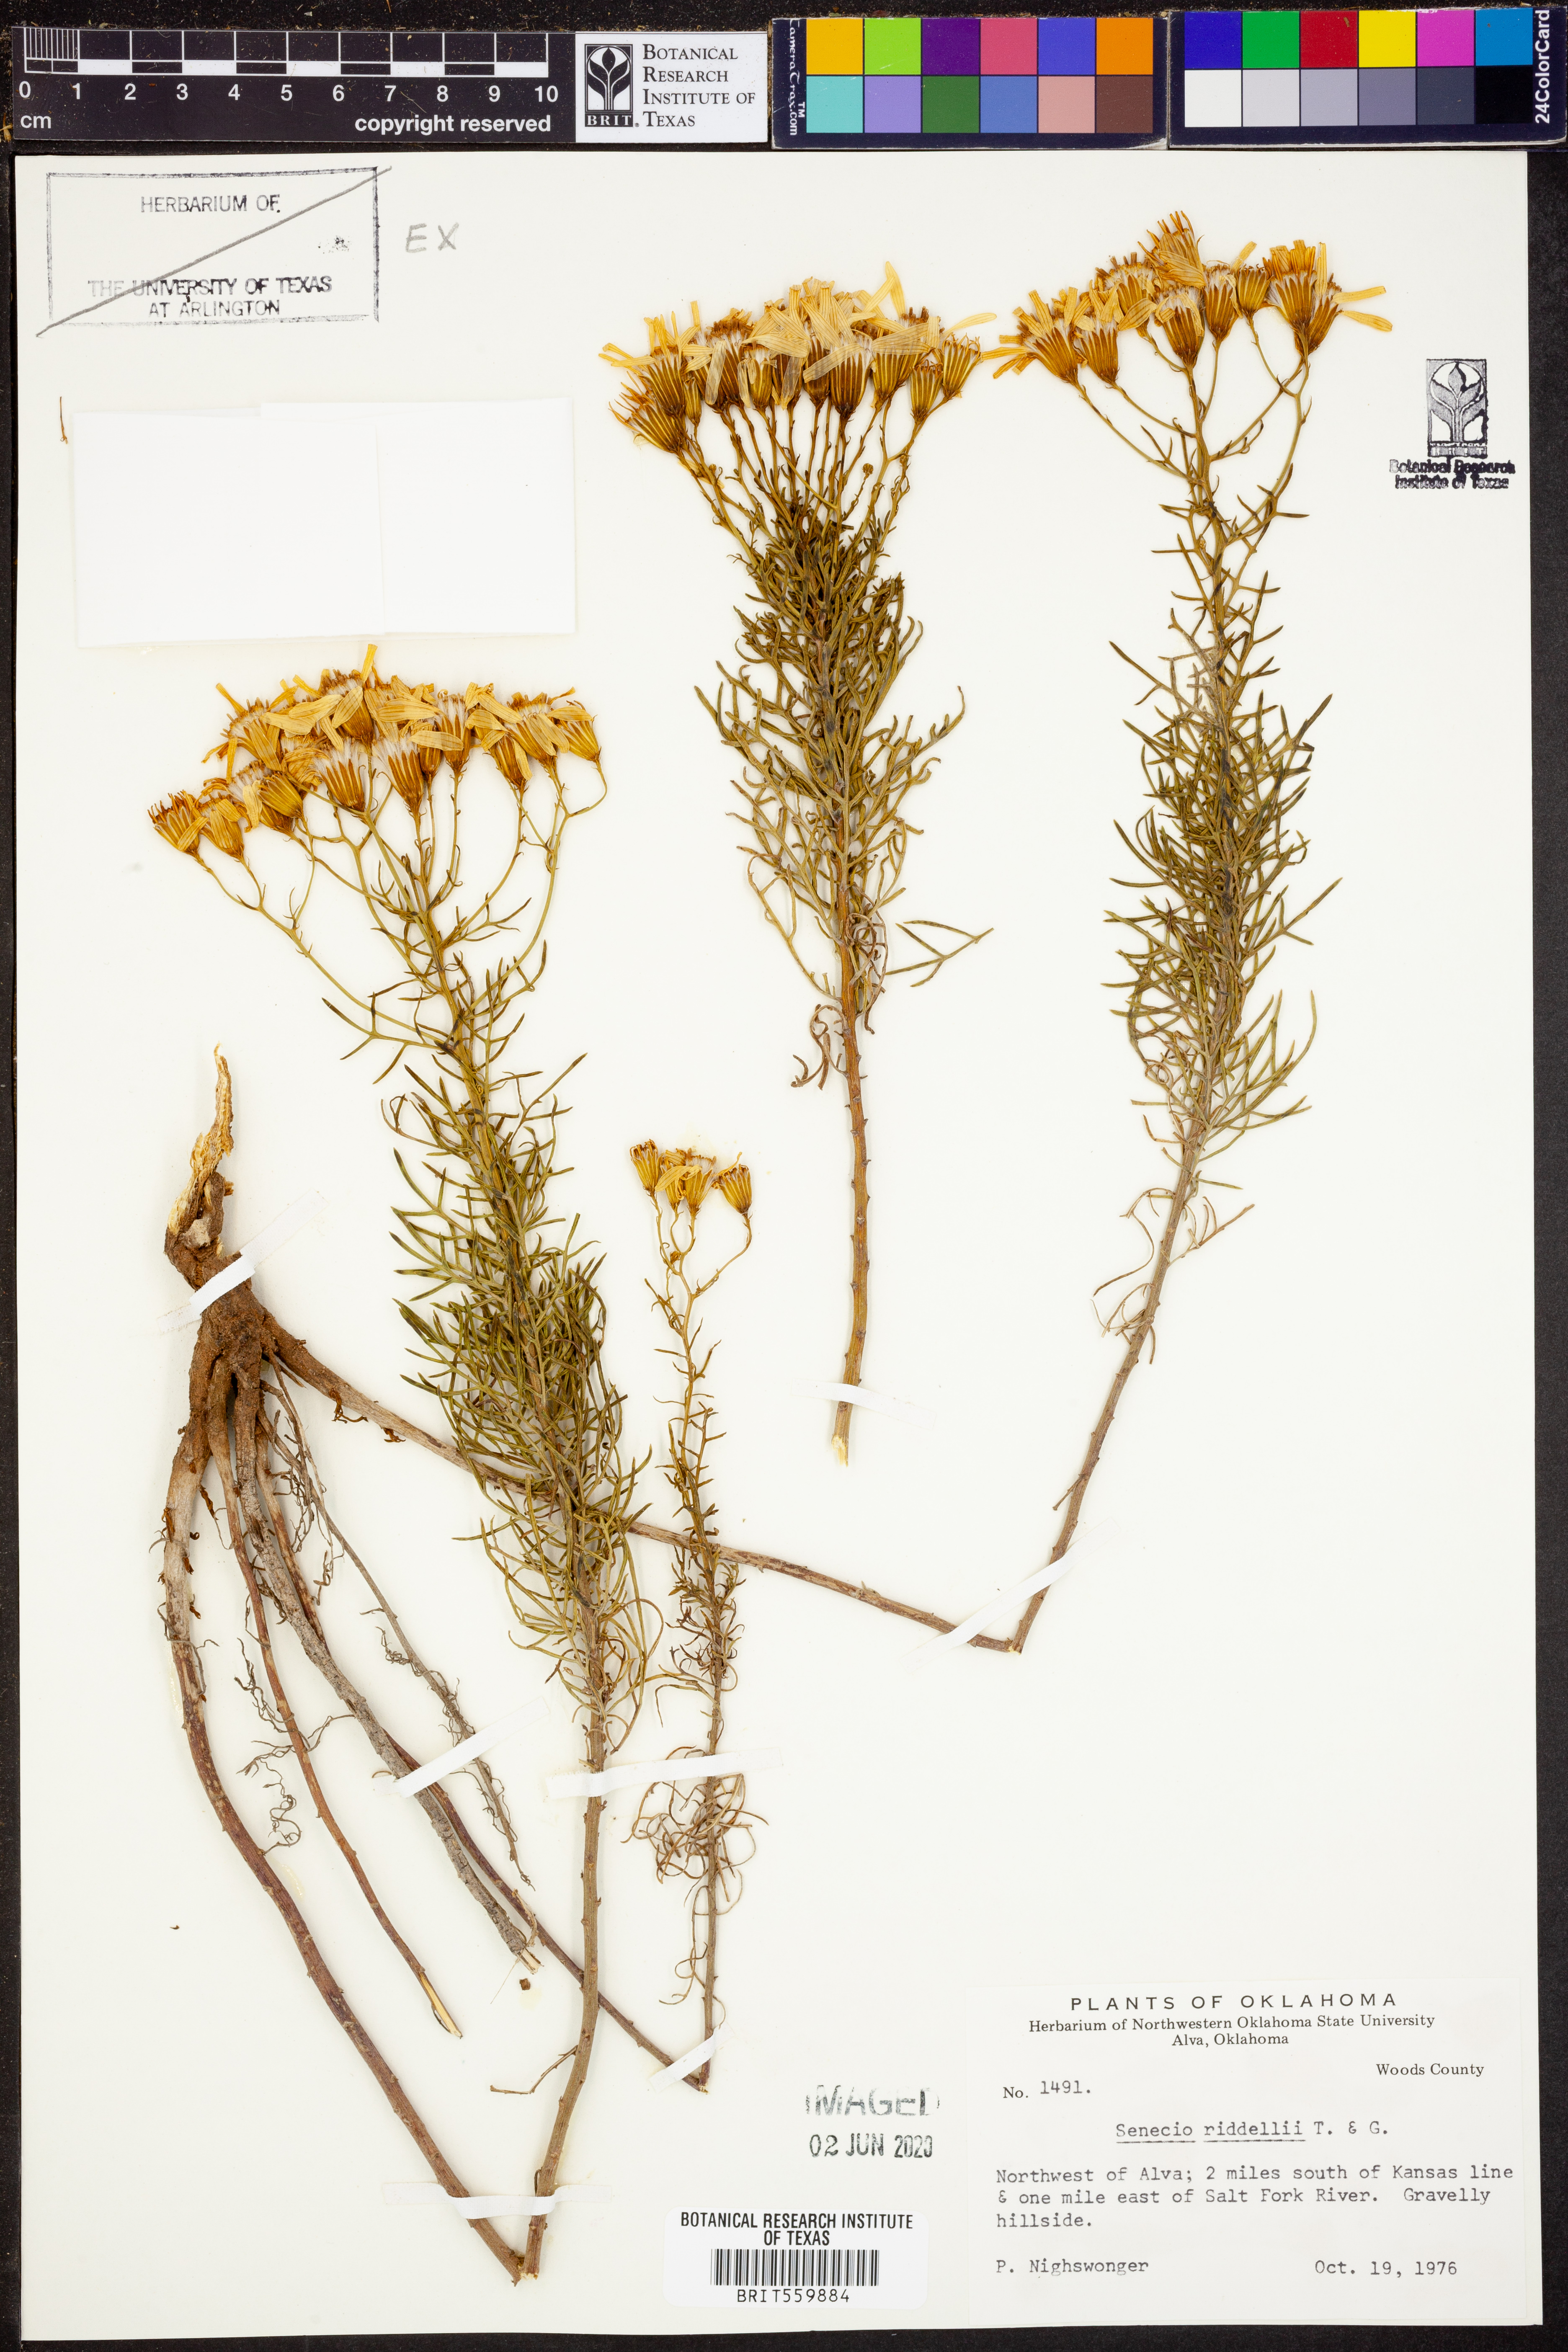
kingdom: Plantae
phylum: Tracheophyta
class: Magnoliopsida
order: Asterales
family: Asteraceae
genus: Senecio
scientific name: Senecio riddellii
